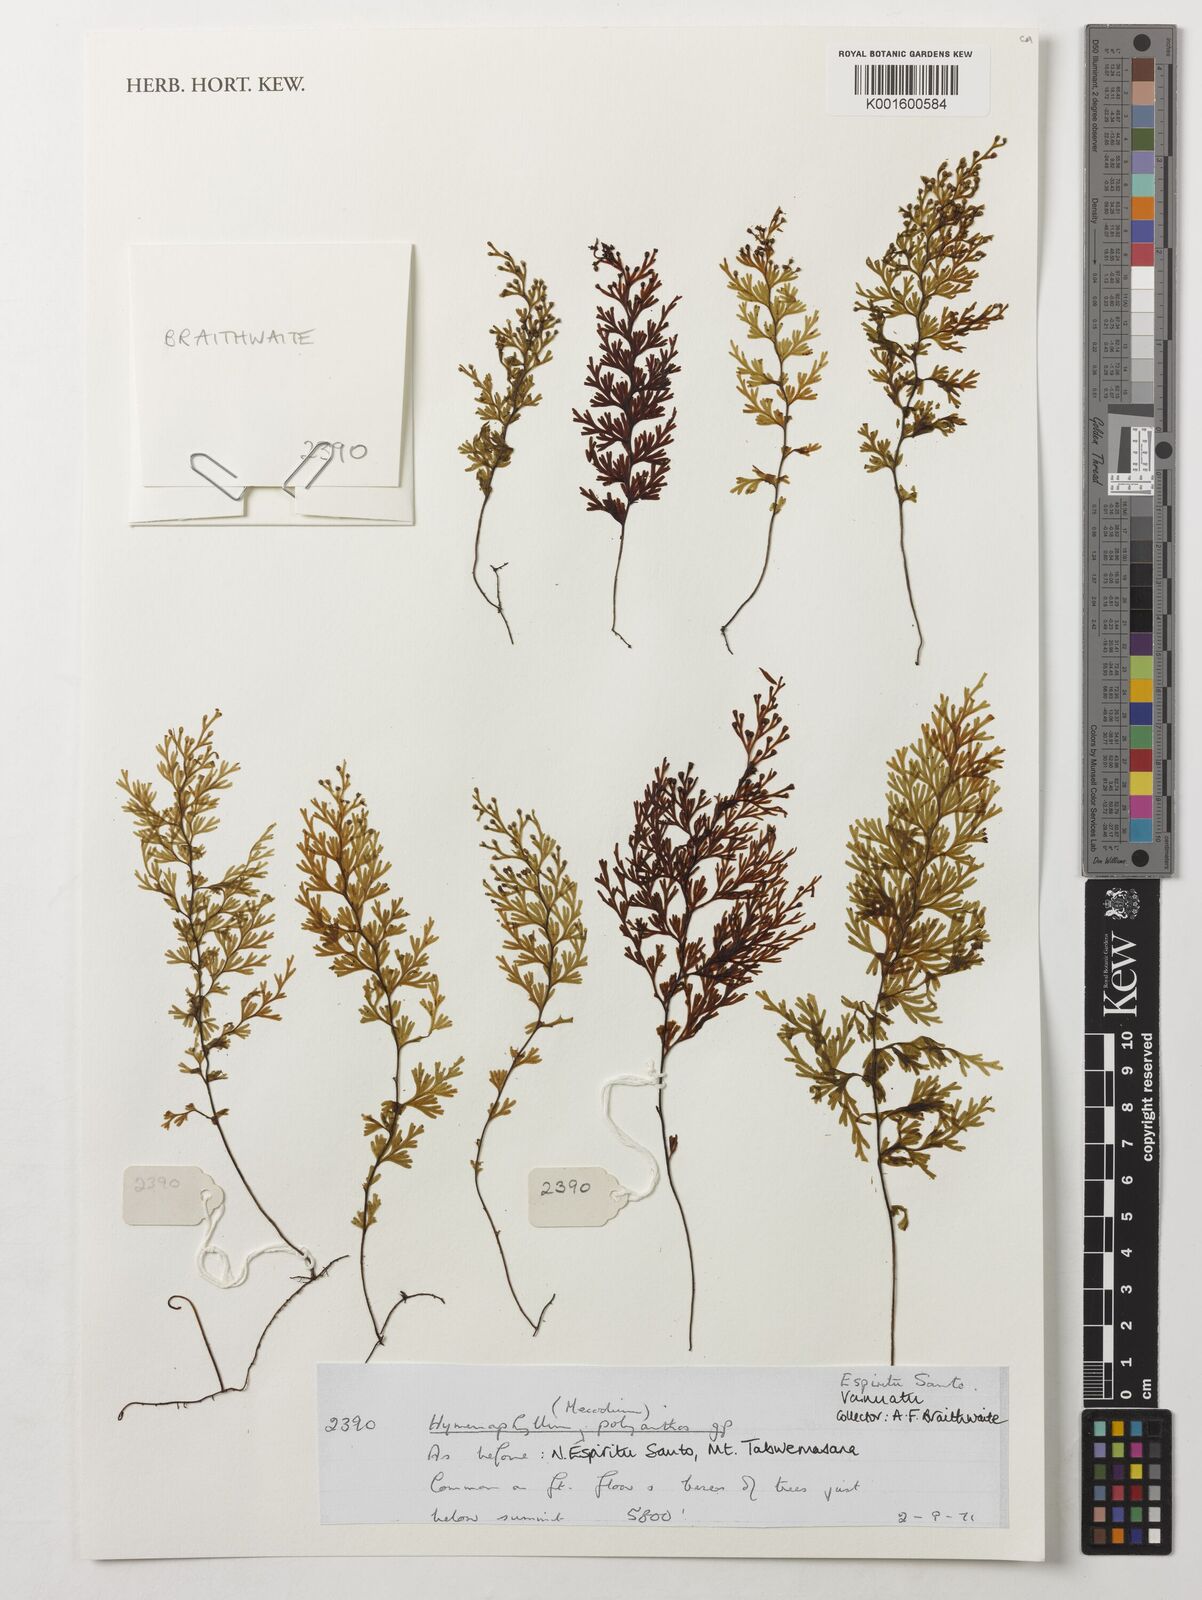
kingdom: Plantae
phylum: Tracheophyta
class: Polypodiopsida
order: Hymenophyllales
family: Hymenophyllaceae
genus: Hymenophyllum
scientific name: Hymenophyllum polyanthos
